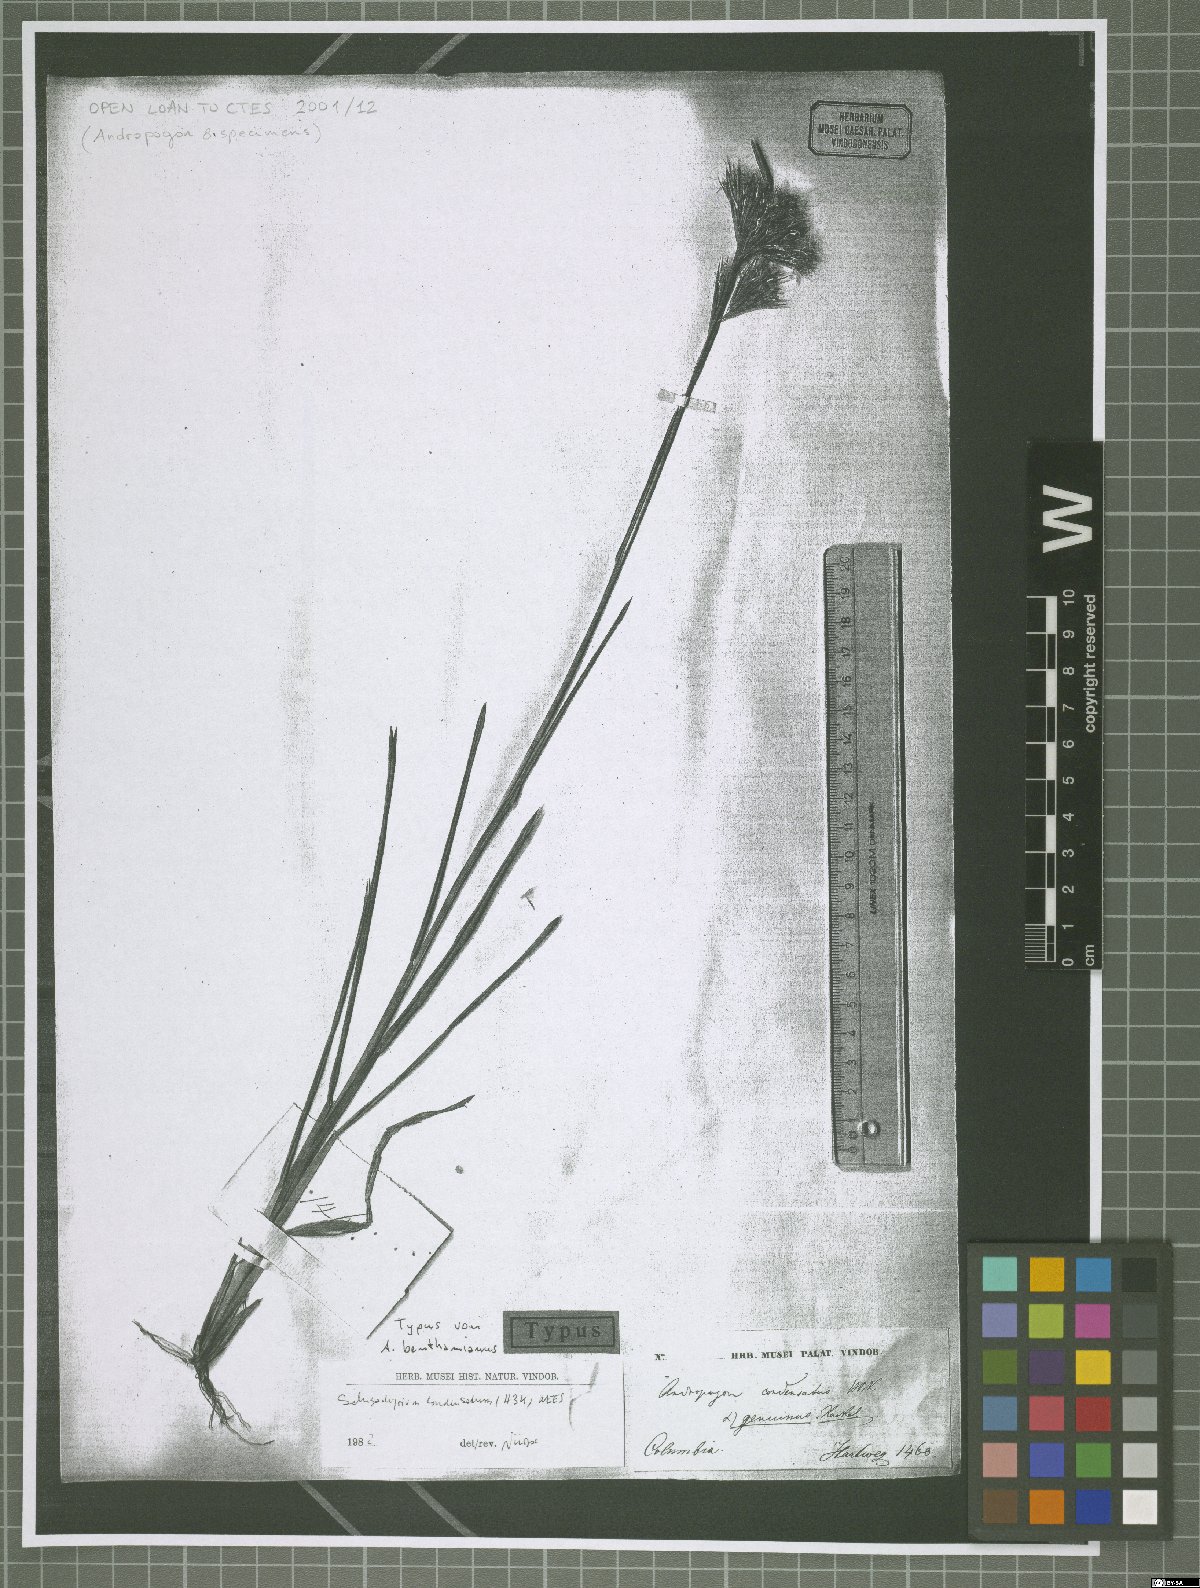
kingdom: Plantae
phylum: Tracheophyta
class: Liliopsida
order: Poales
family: Poaceae
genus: Schizachyrium
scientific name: Schizachyrium condensatum
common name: Bush beardgrass
